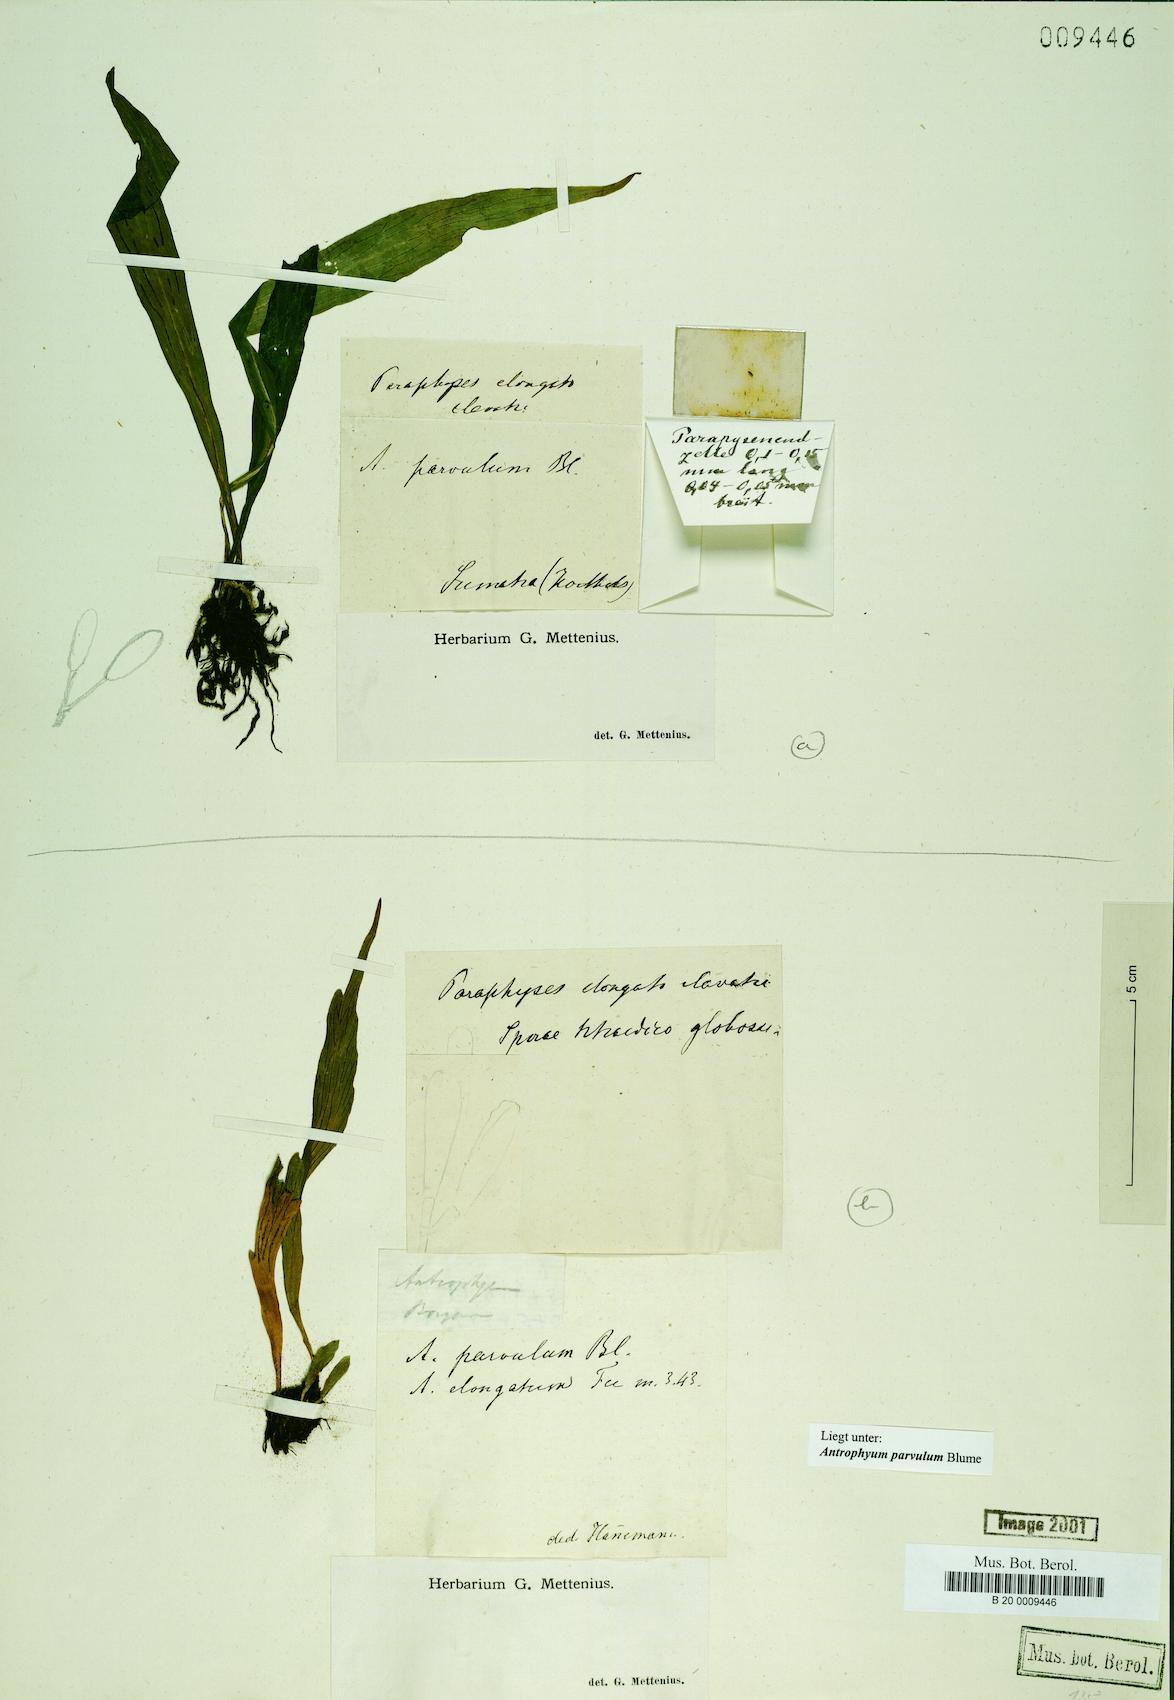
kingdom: Plantae
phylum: Tracheophyta
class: Polypodiopsida
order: Polypodiales
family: Pteridaceae
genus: Antrophyum
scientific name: Antrophyum parvulum
